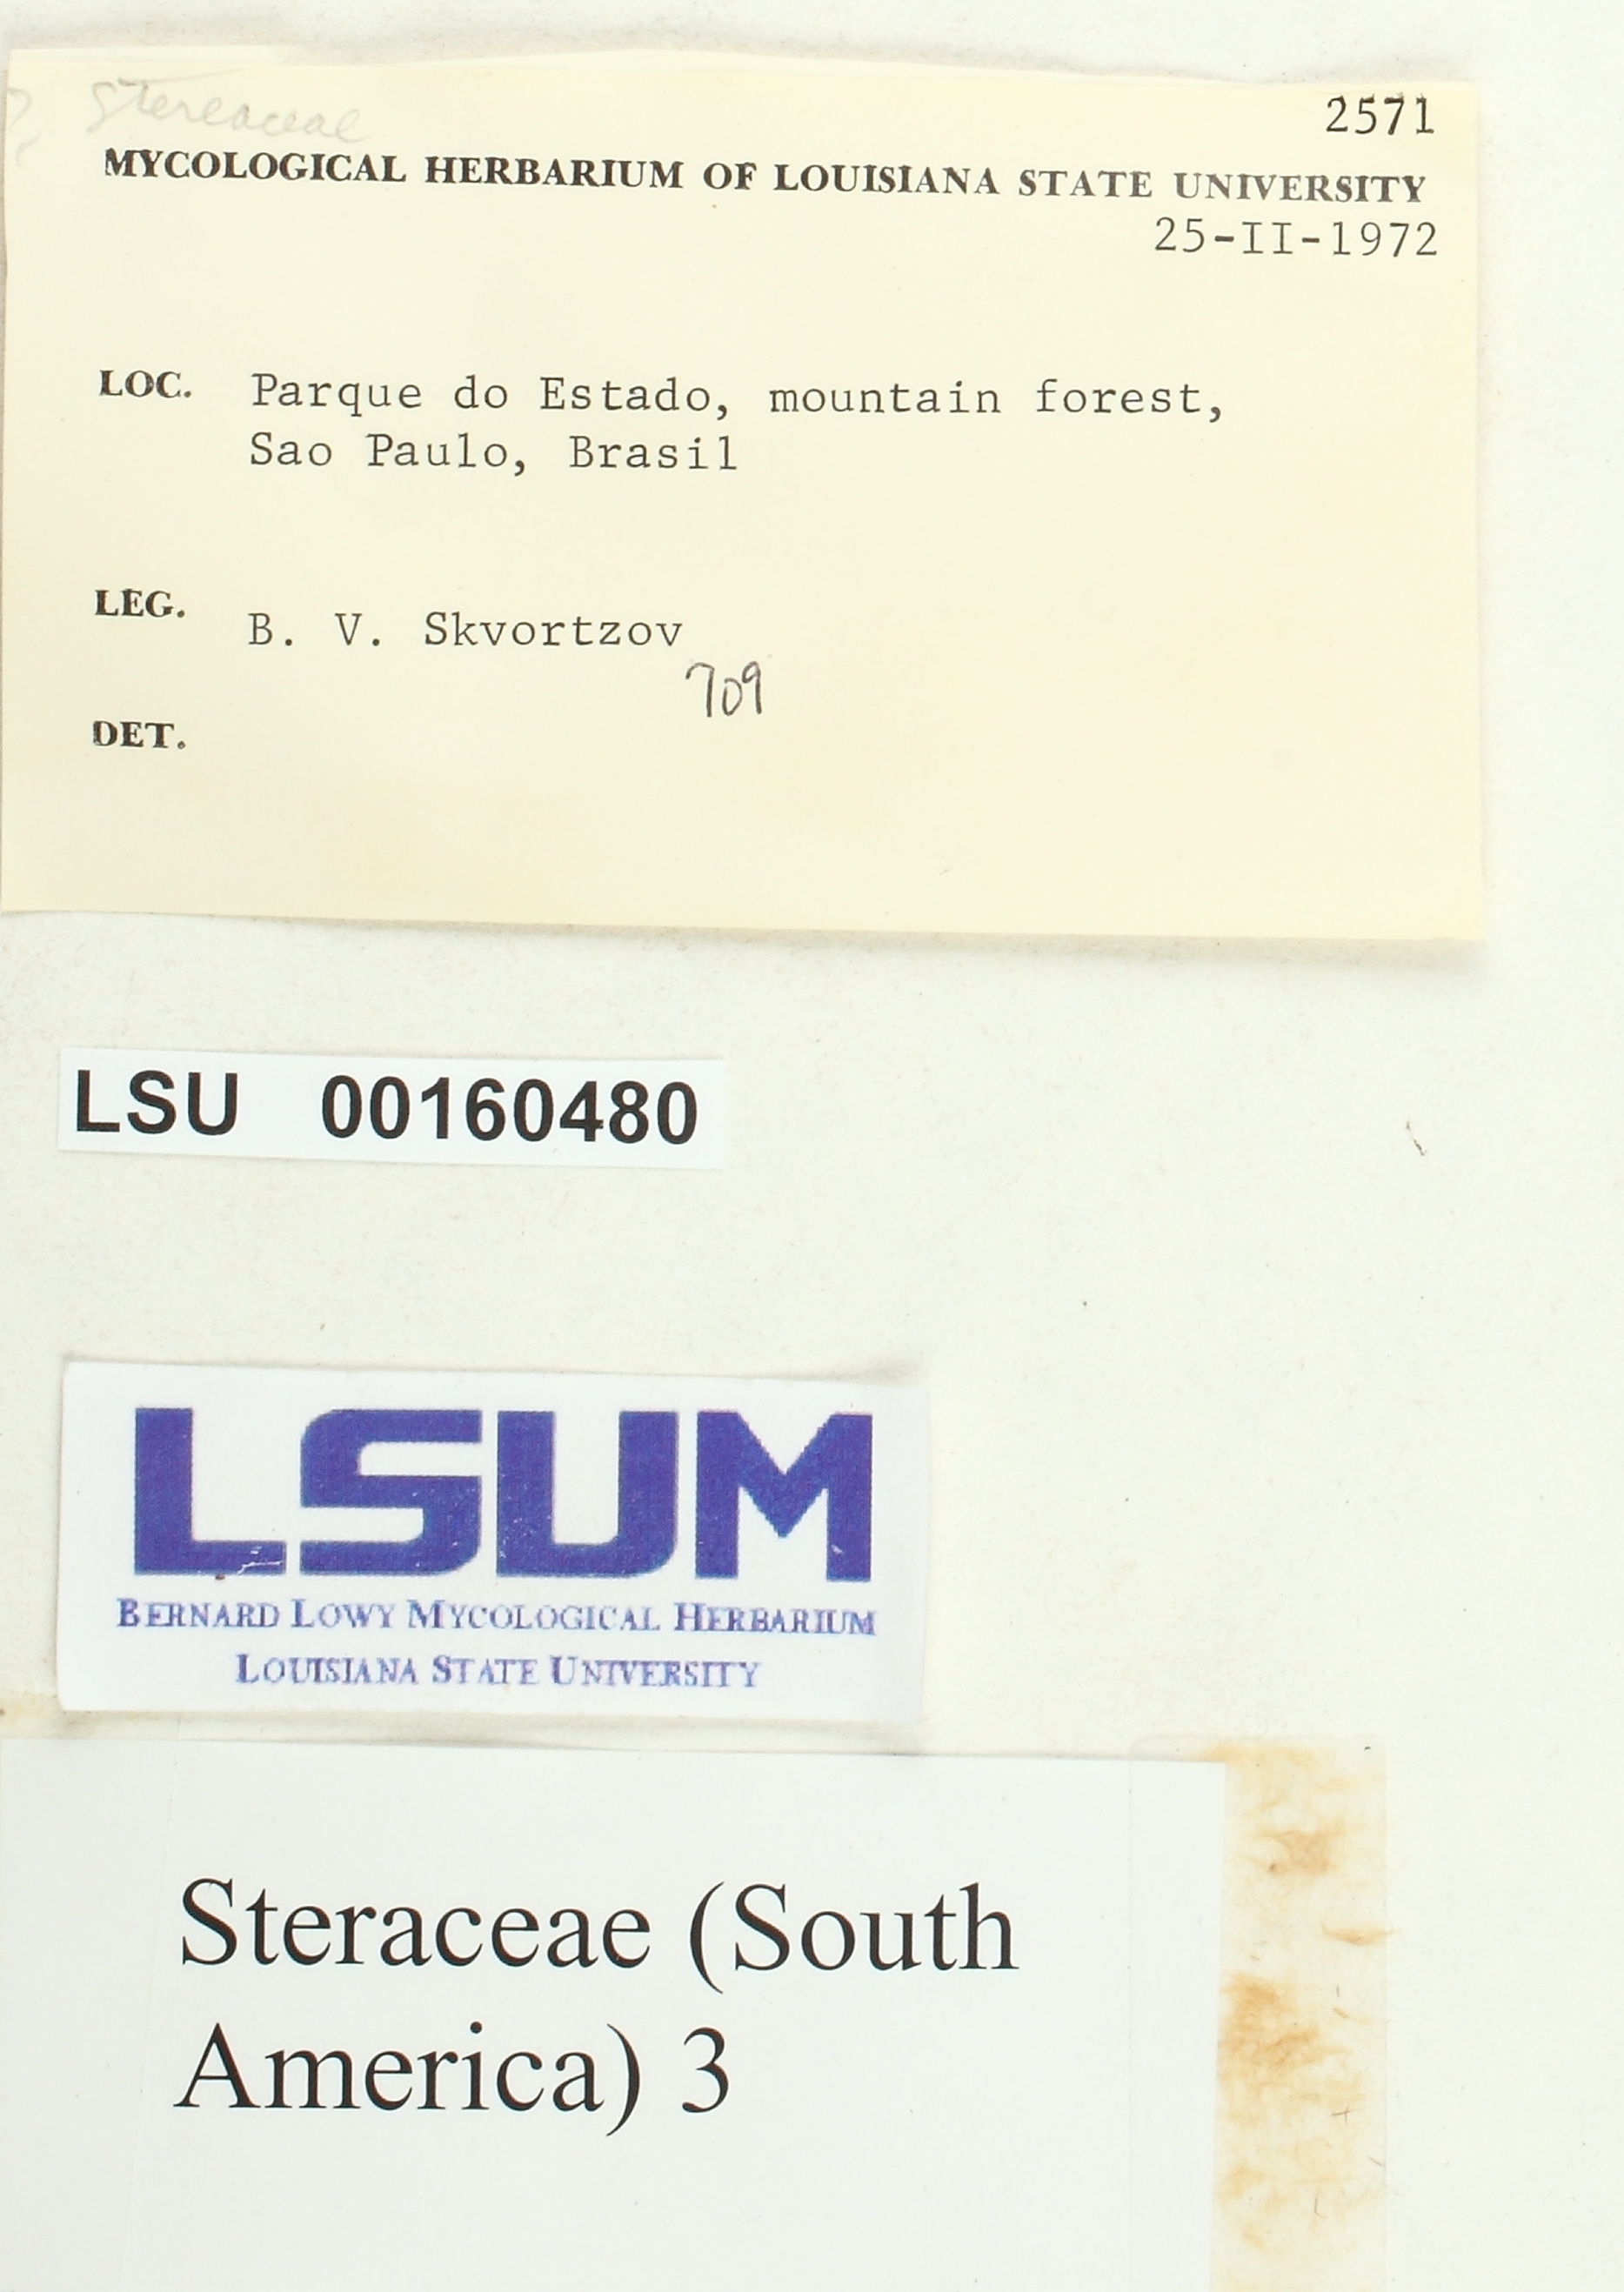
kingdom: Fungi
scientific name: Fungi
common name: Fungi
